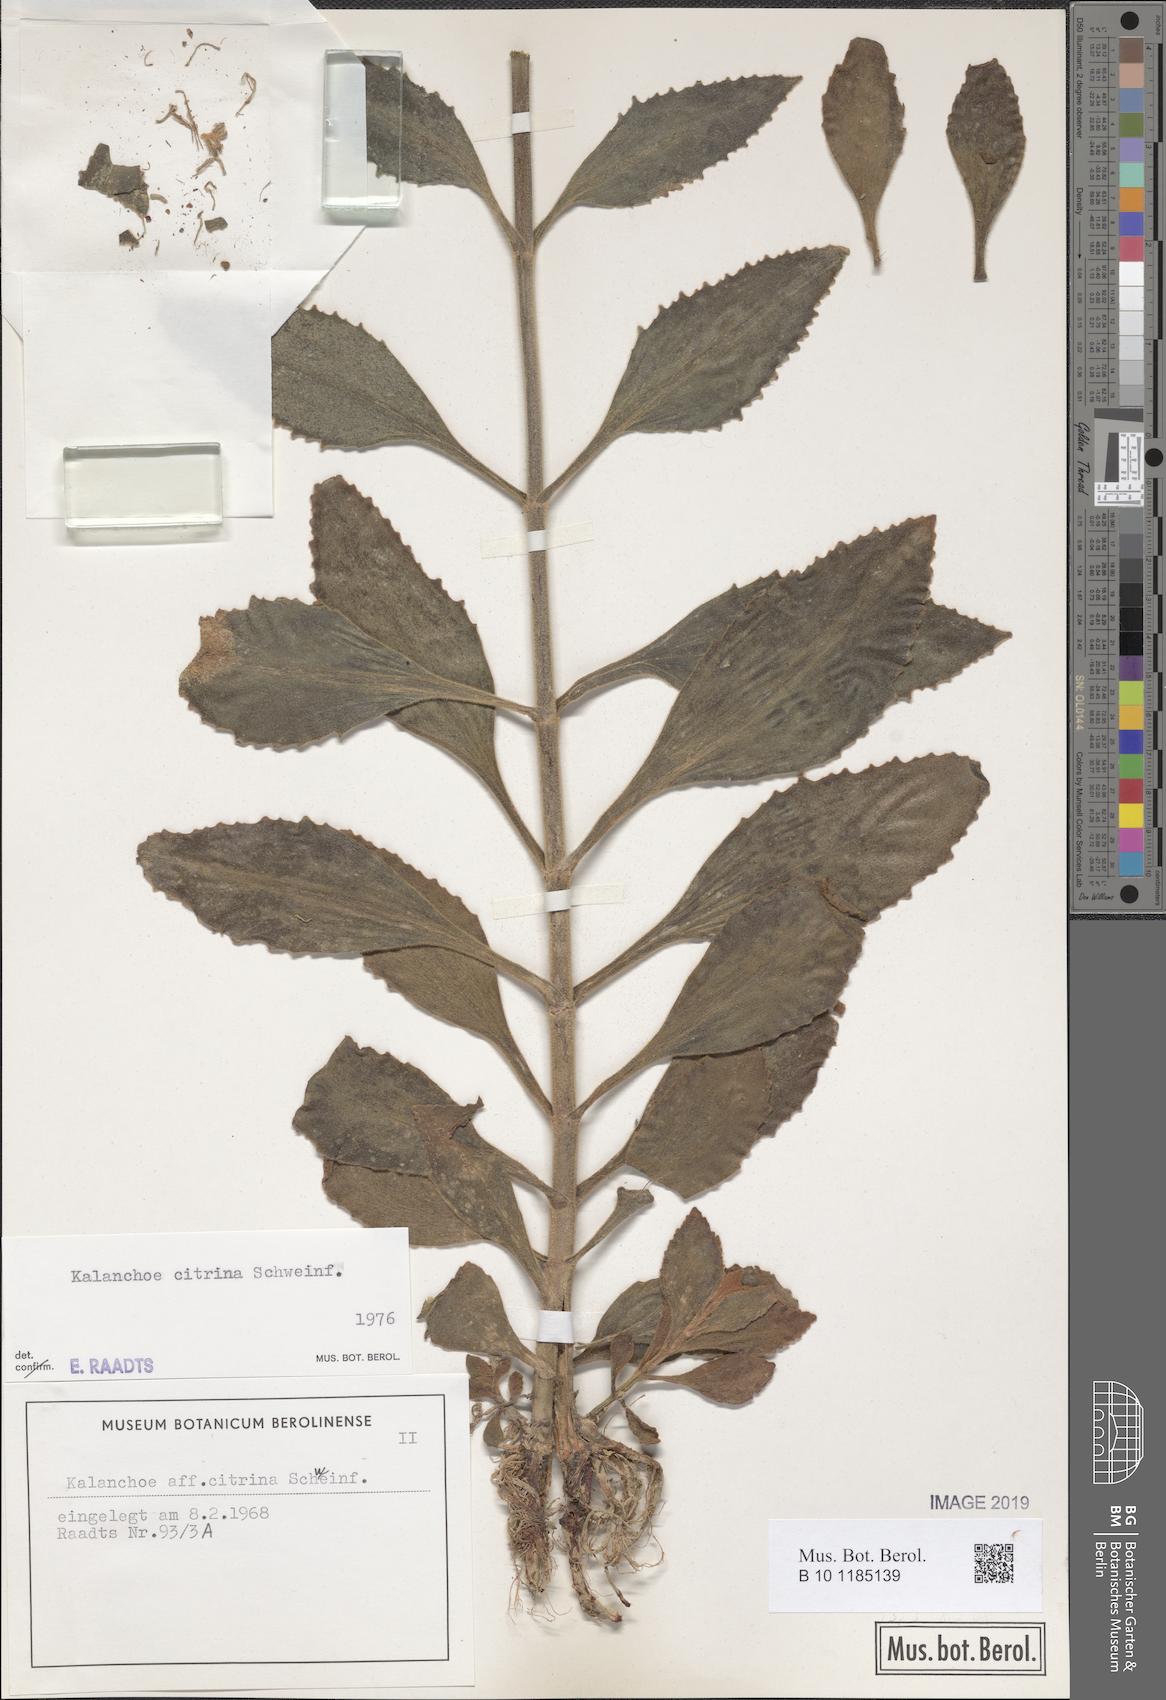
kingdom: Plantae
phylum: Tracheophyta
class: Magnoliopsida
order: Saxifragales
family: Crassulaceae
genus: Kalanchoe
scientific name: Kalanchoe citrina
